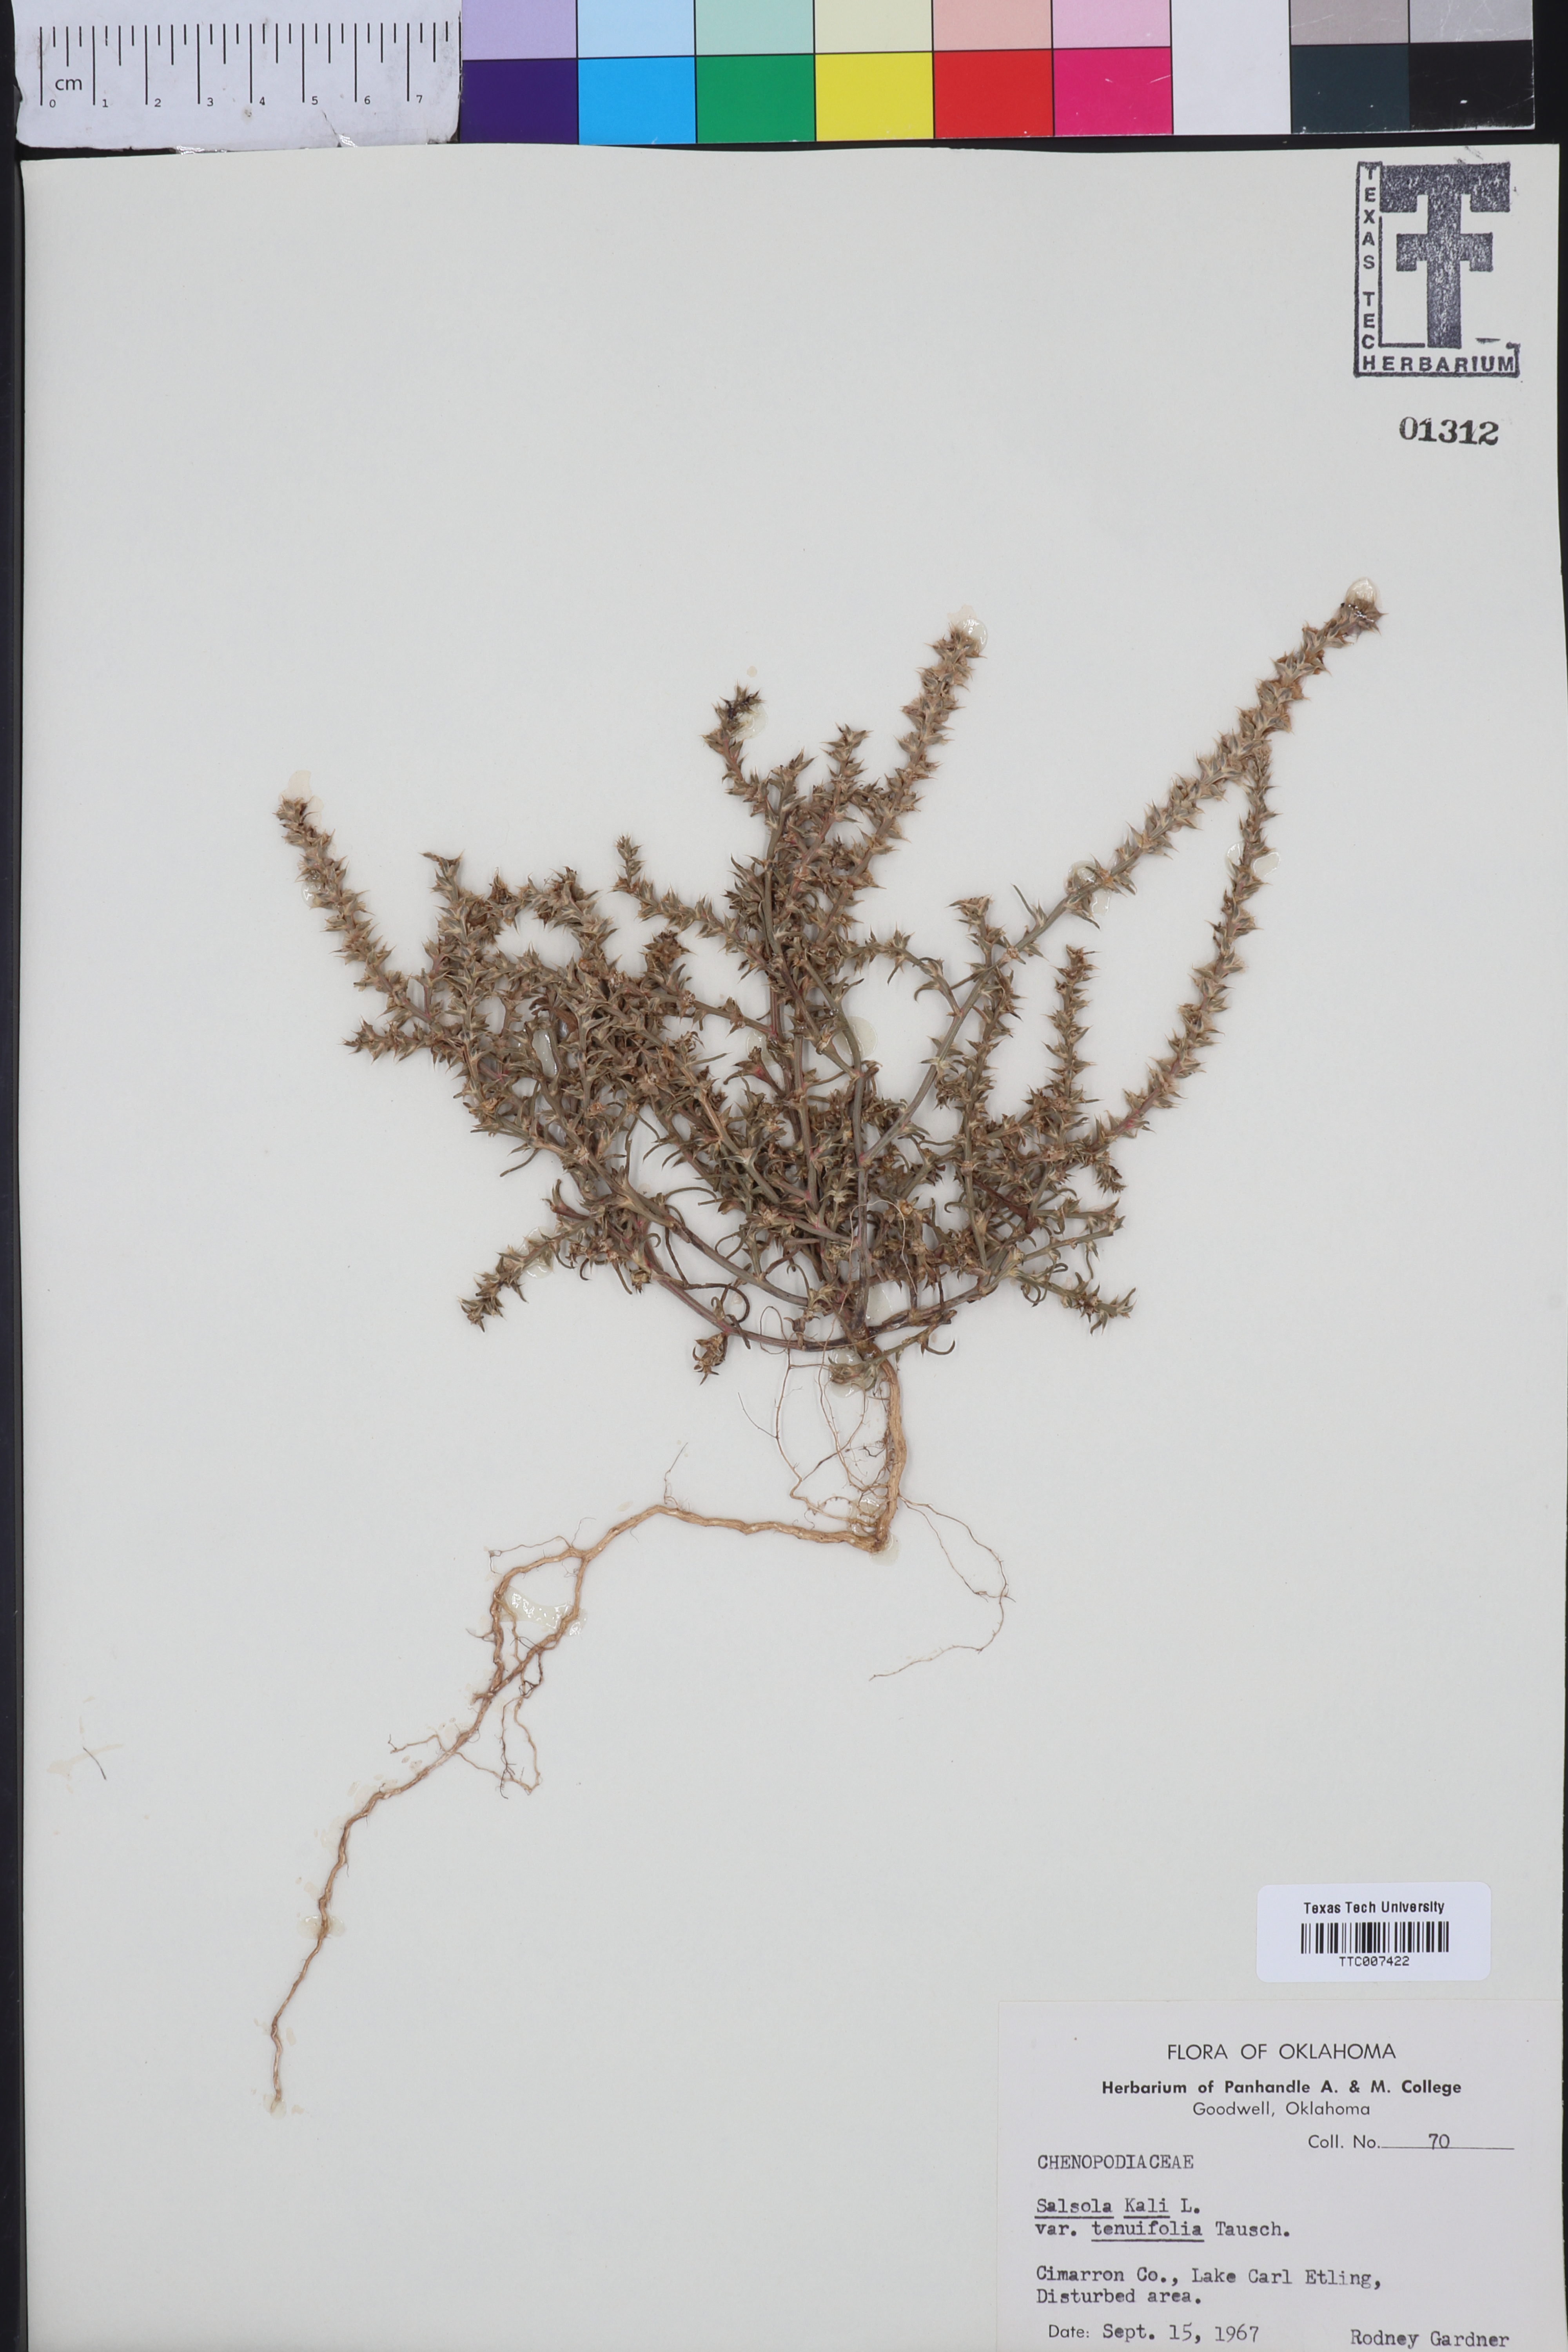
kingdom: Plantae
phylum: Tracheophyta
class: Magnoliopsida
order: Caryophyllales
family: Amaranthaceae
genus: Salsola
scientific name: Salsola tragus
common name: Prickly russian thistle
